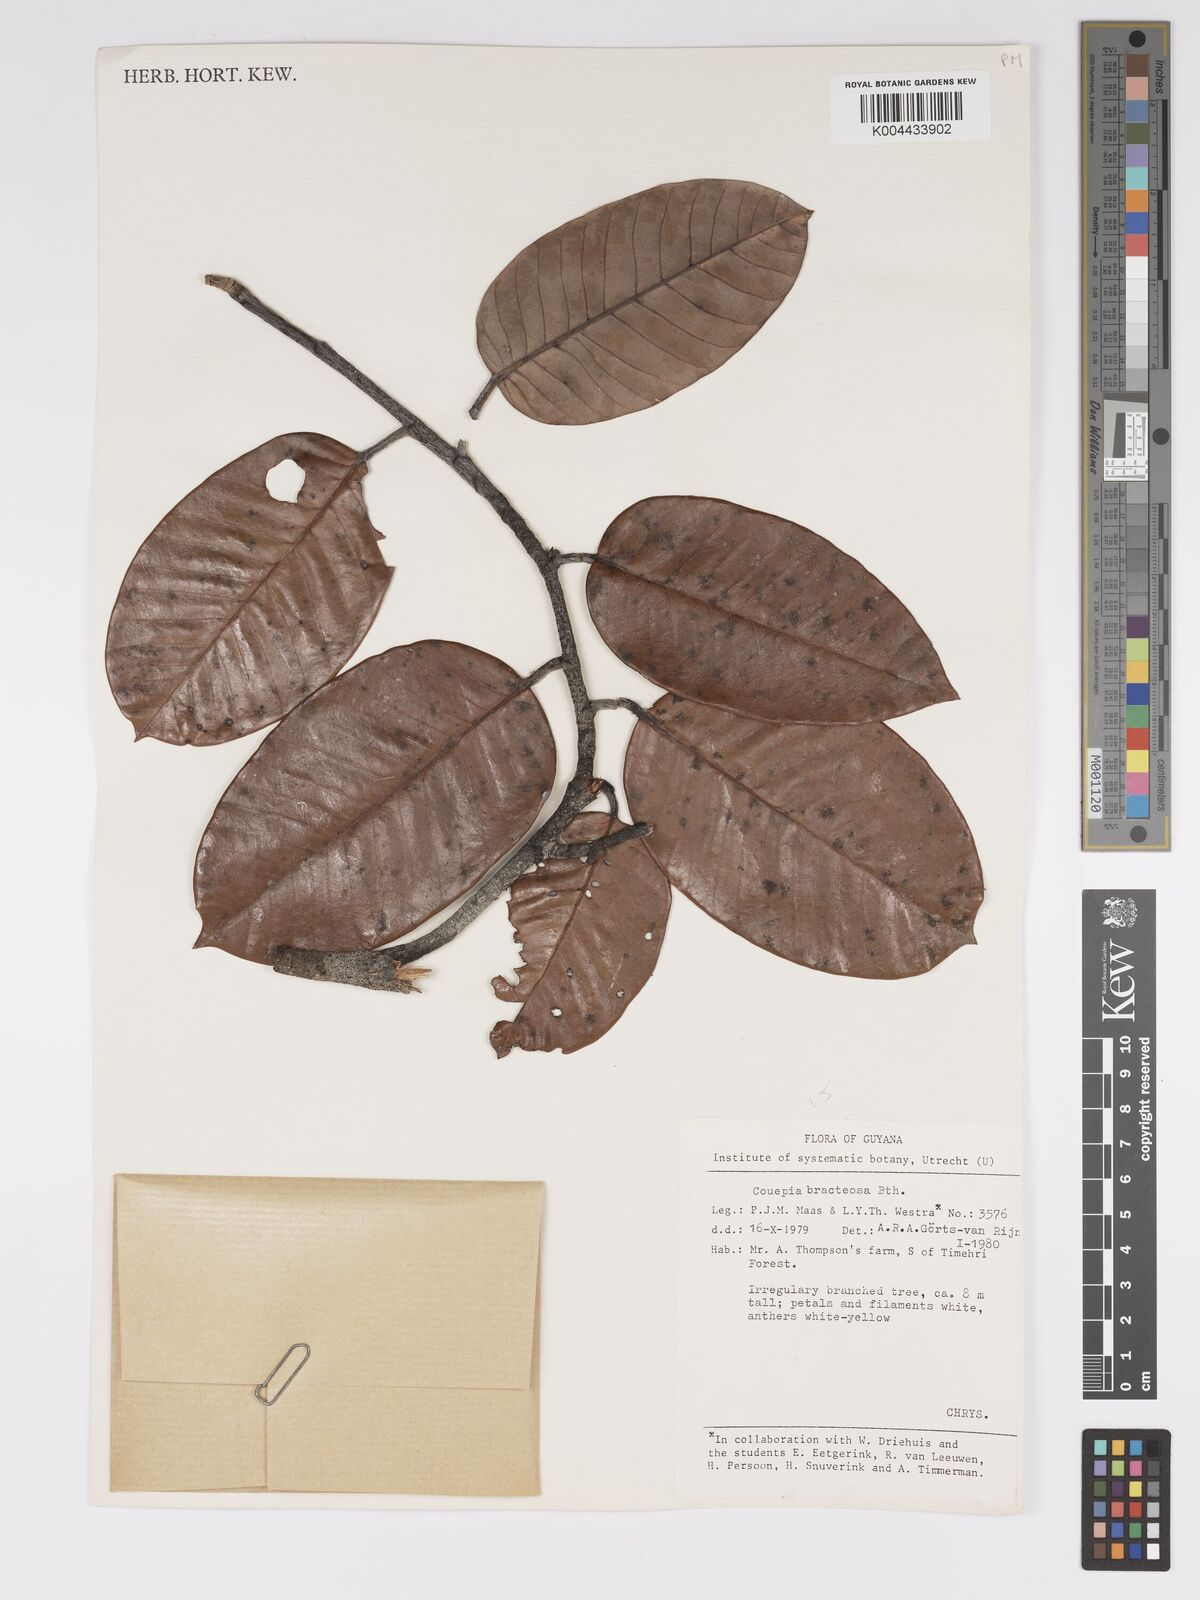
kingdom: Plantae
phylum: Tracheophyta
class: Magnoliopsida
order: Malpighiales
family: Chrysobalanaceae
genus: Couepia
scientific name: Couepia bracteosa
